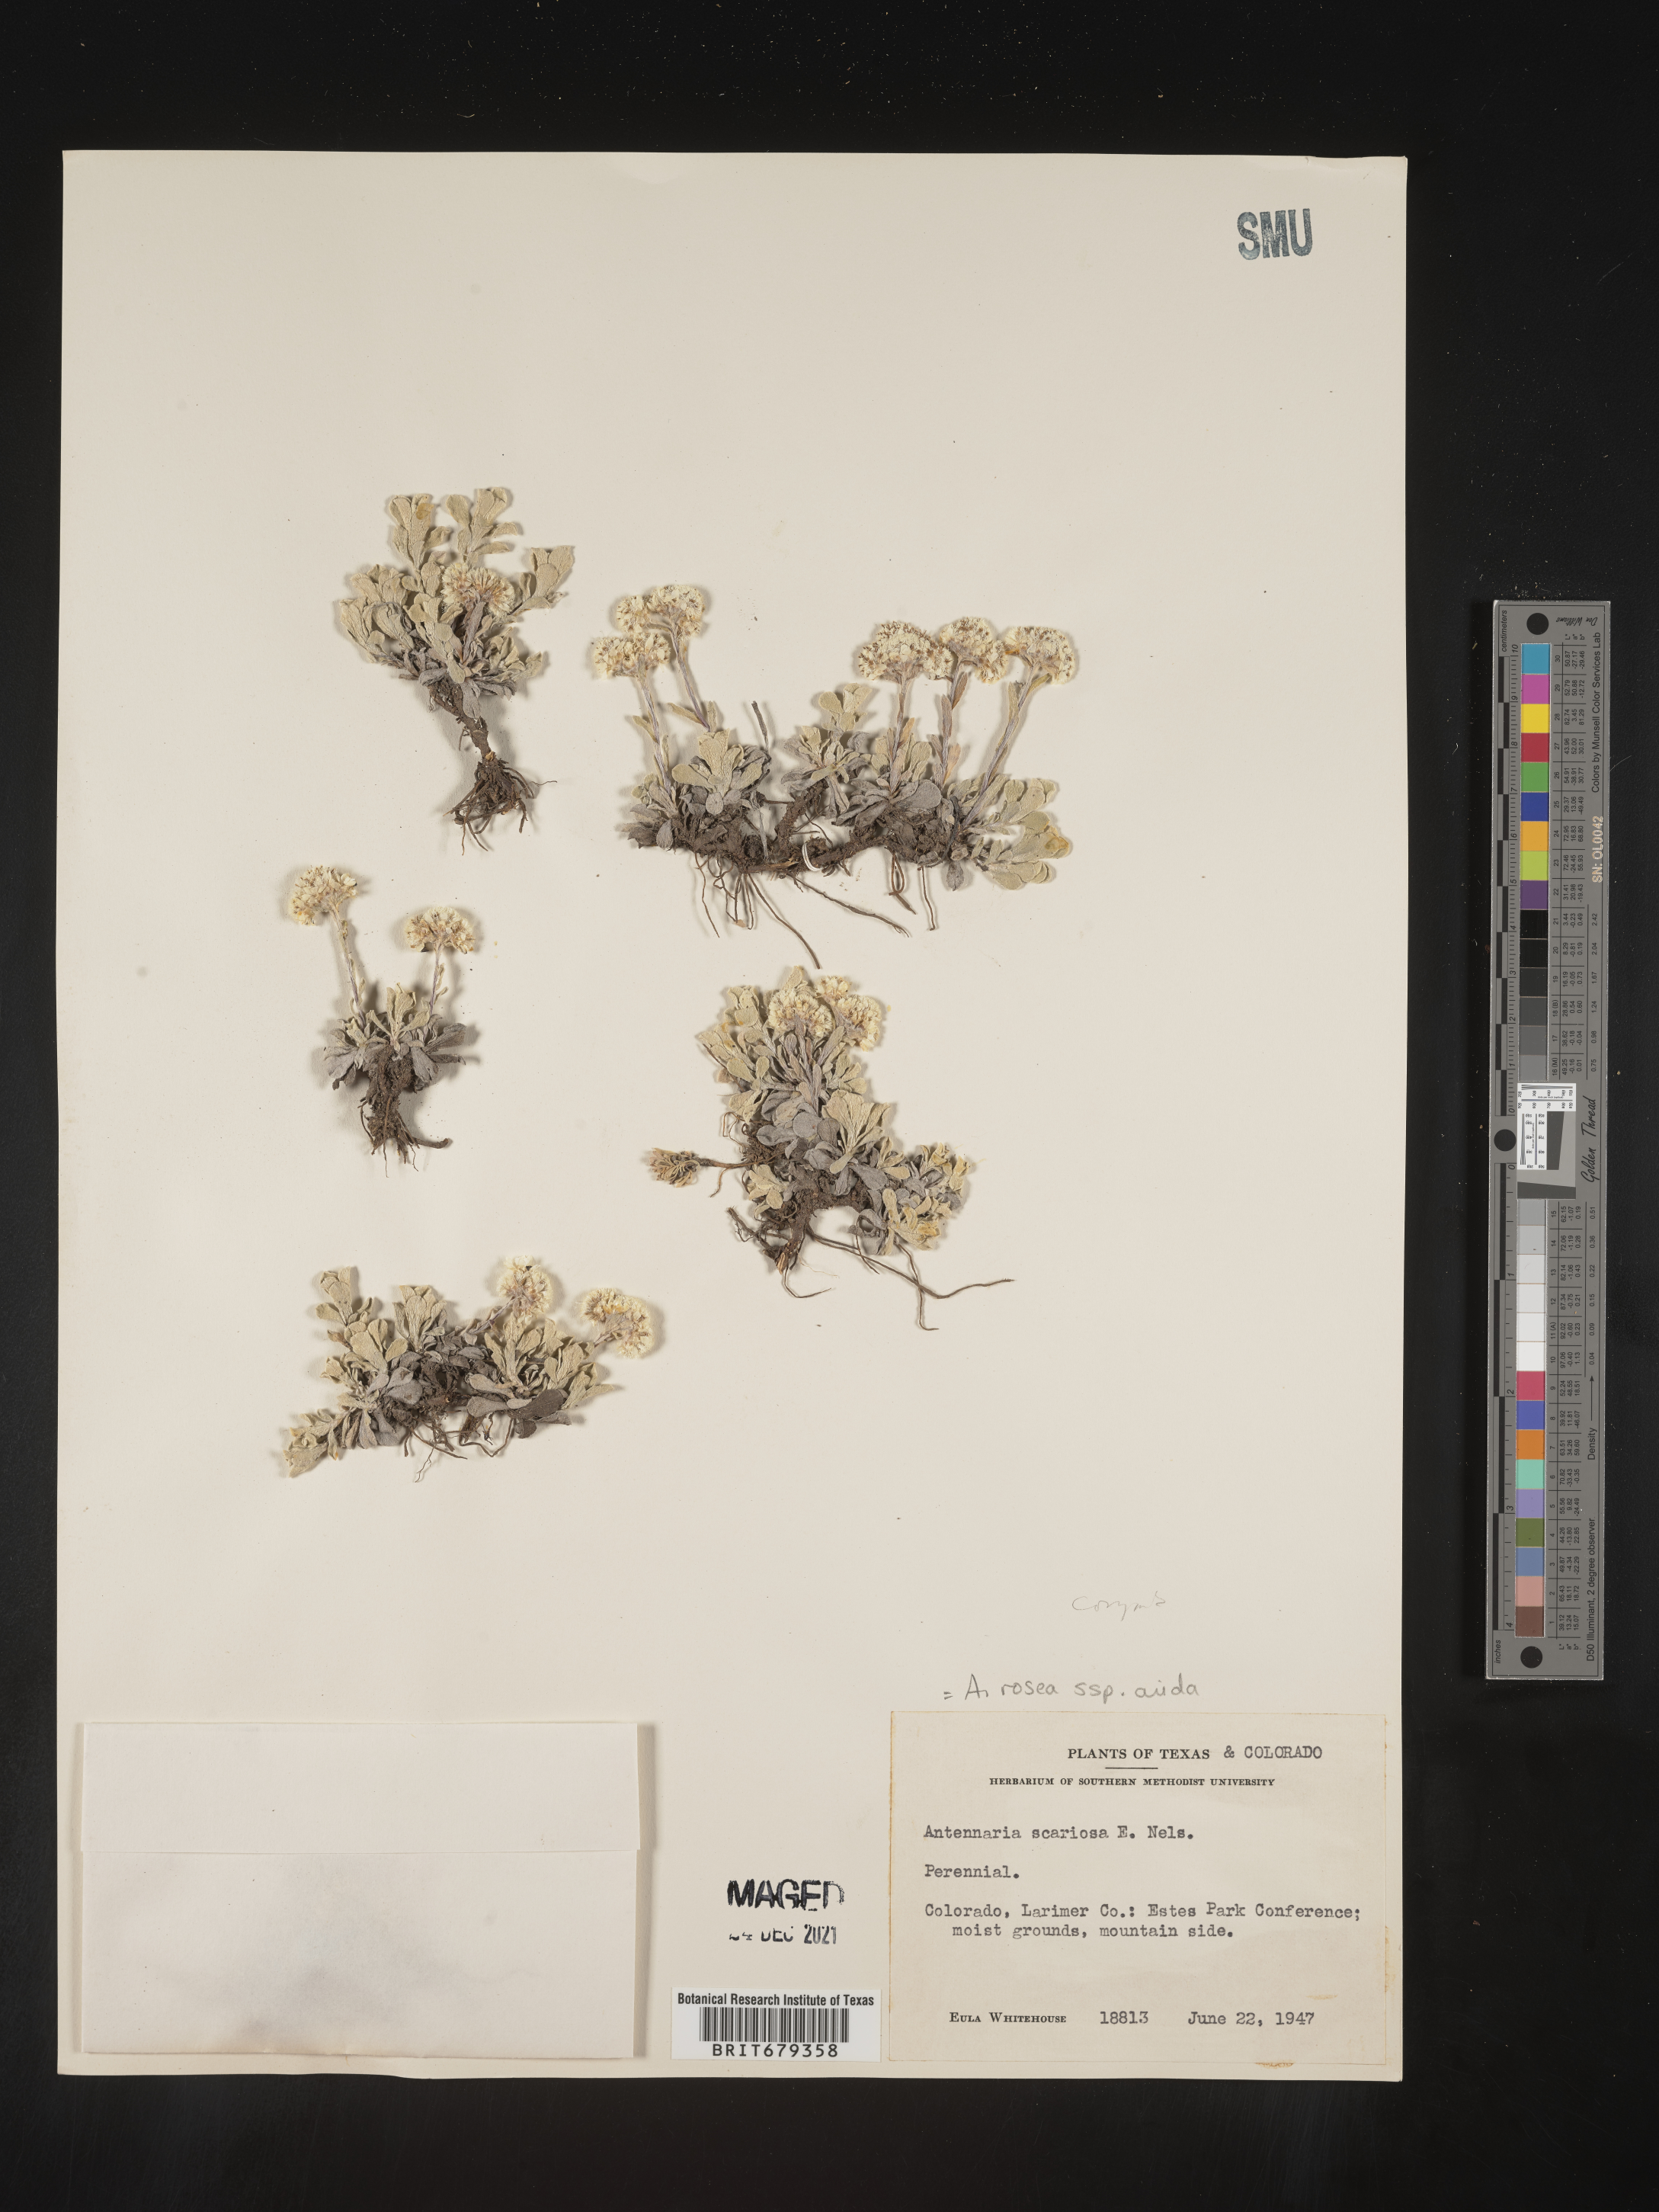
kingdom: Plantae
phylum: Tracheophyta
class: Magnoliopsida
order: Asterales
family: Asteraceae
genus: Antennaria
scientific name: Antennaria corymbosa
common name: Meadow pussytoes
